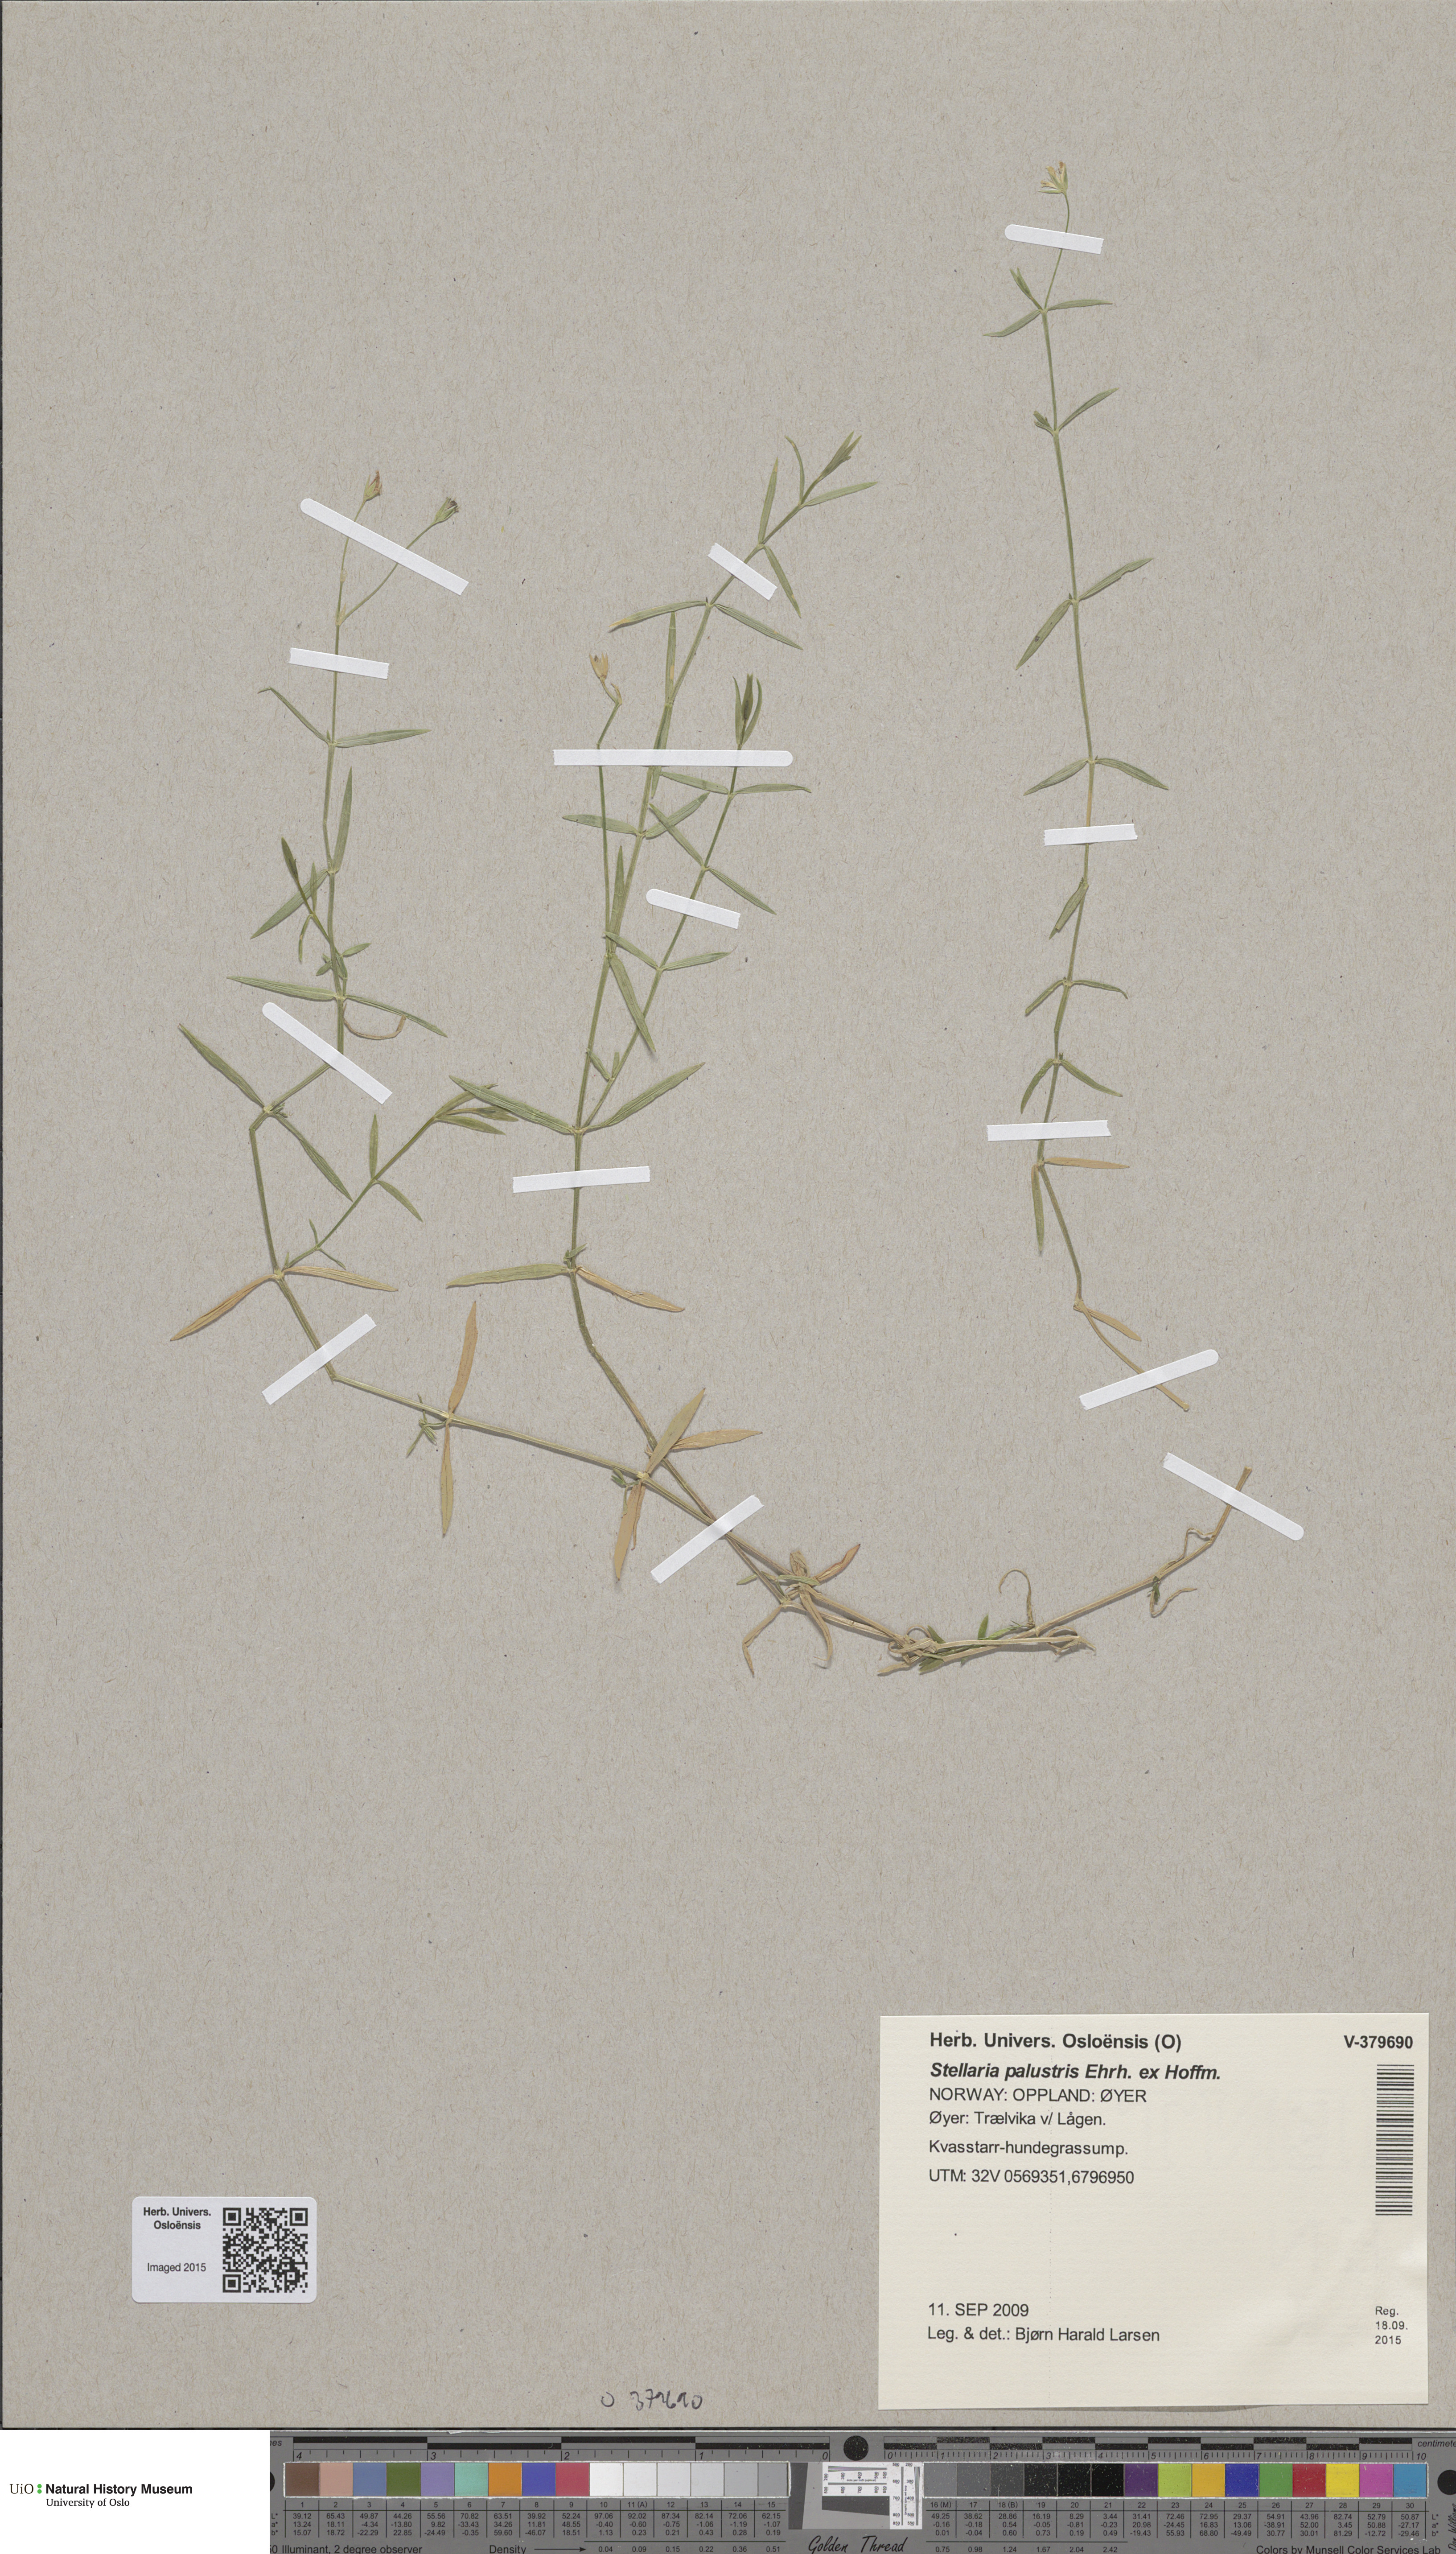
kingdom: Plantae
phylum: Tracheophyta
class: Magnoliopsida
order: Caryophyllales
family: Caryophyllaceae
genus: Stellaria
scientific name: Stellaria palustris
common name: Marsh stitchwort
